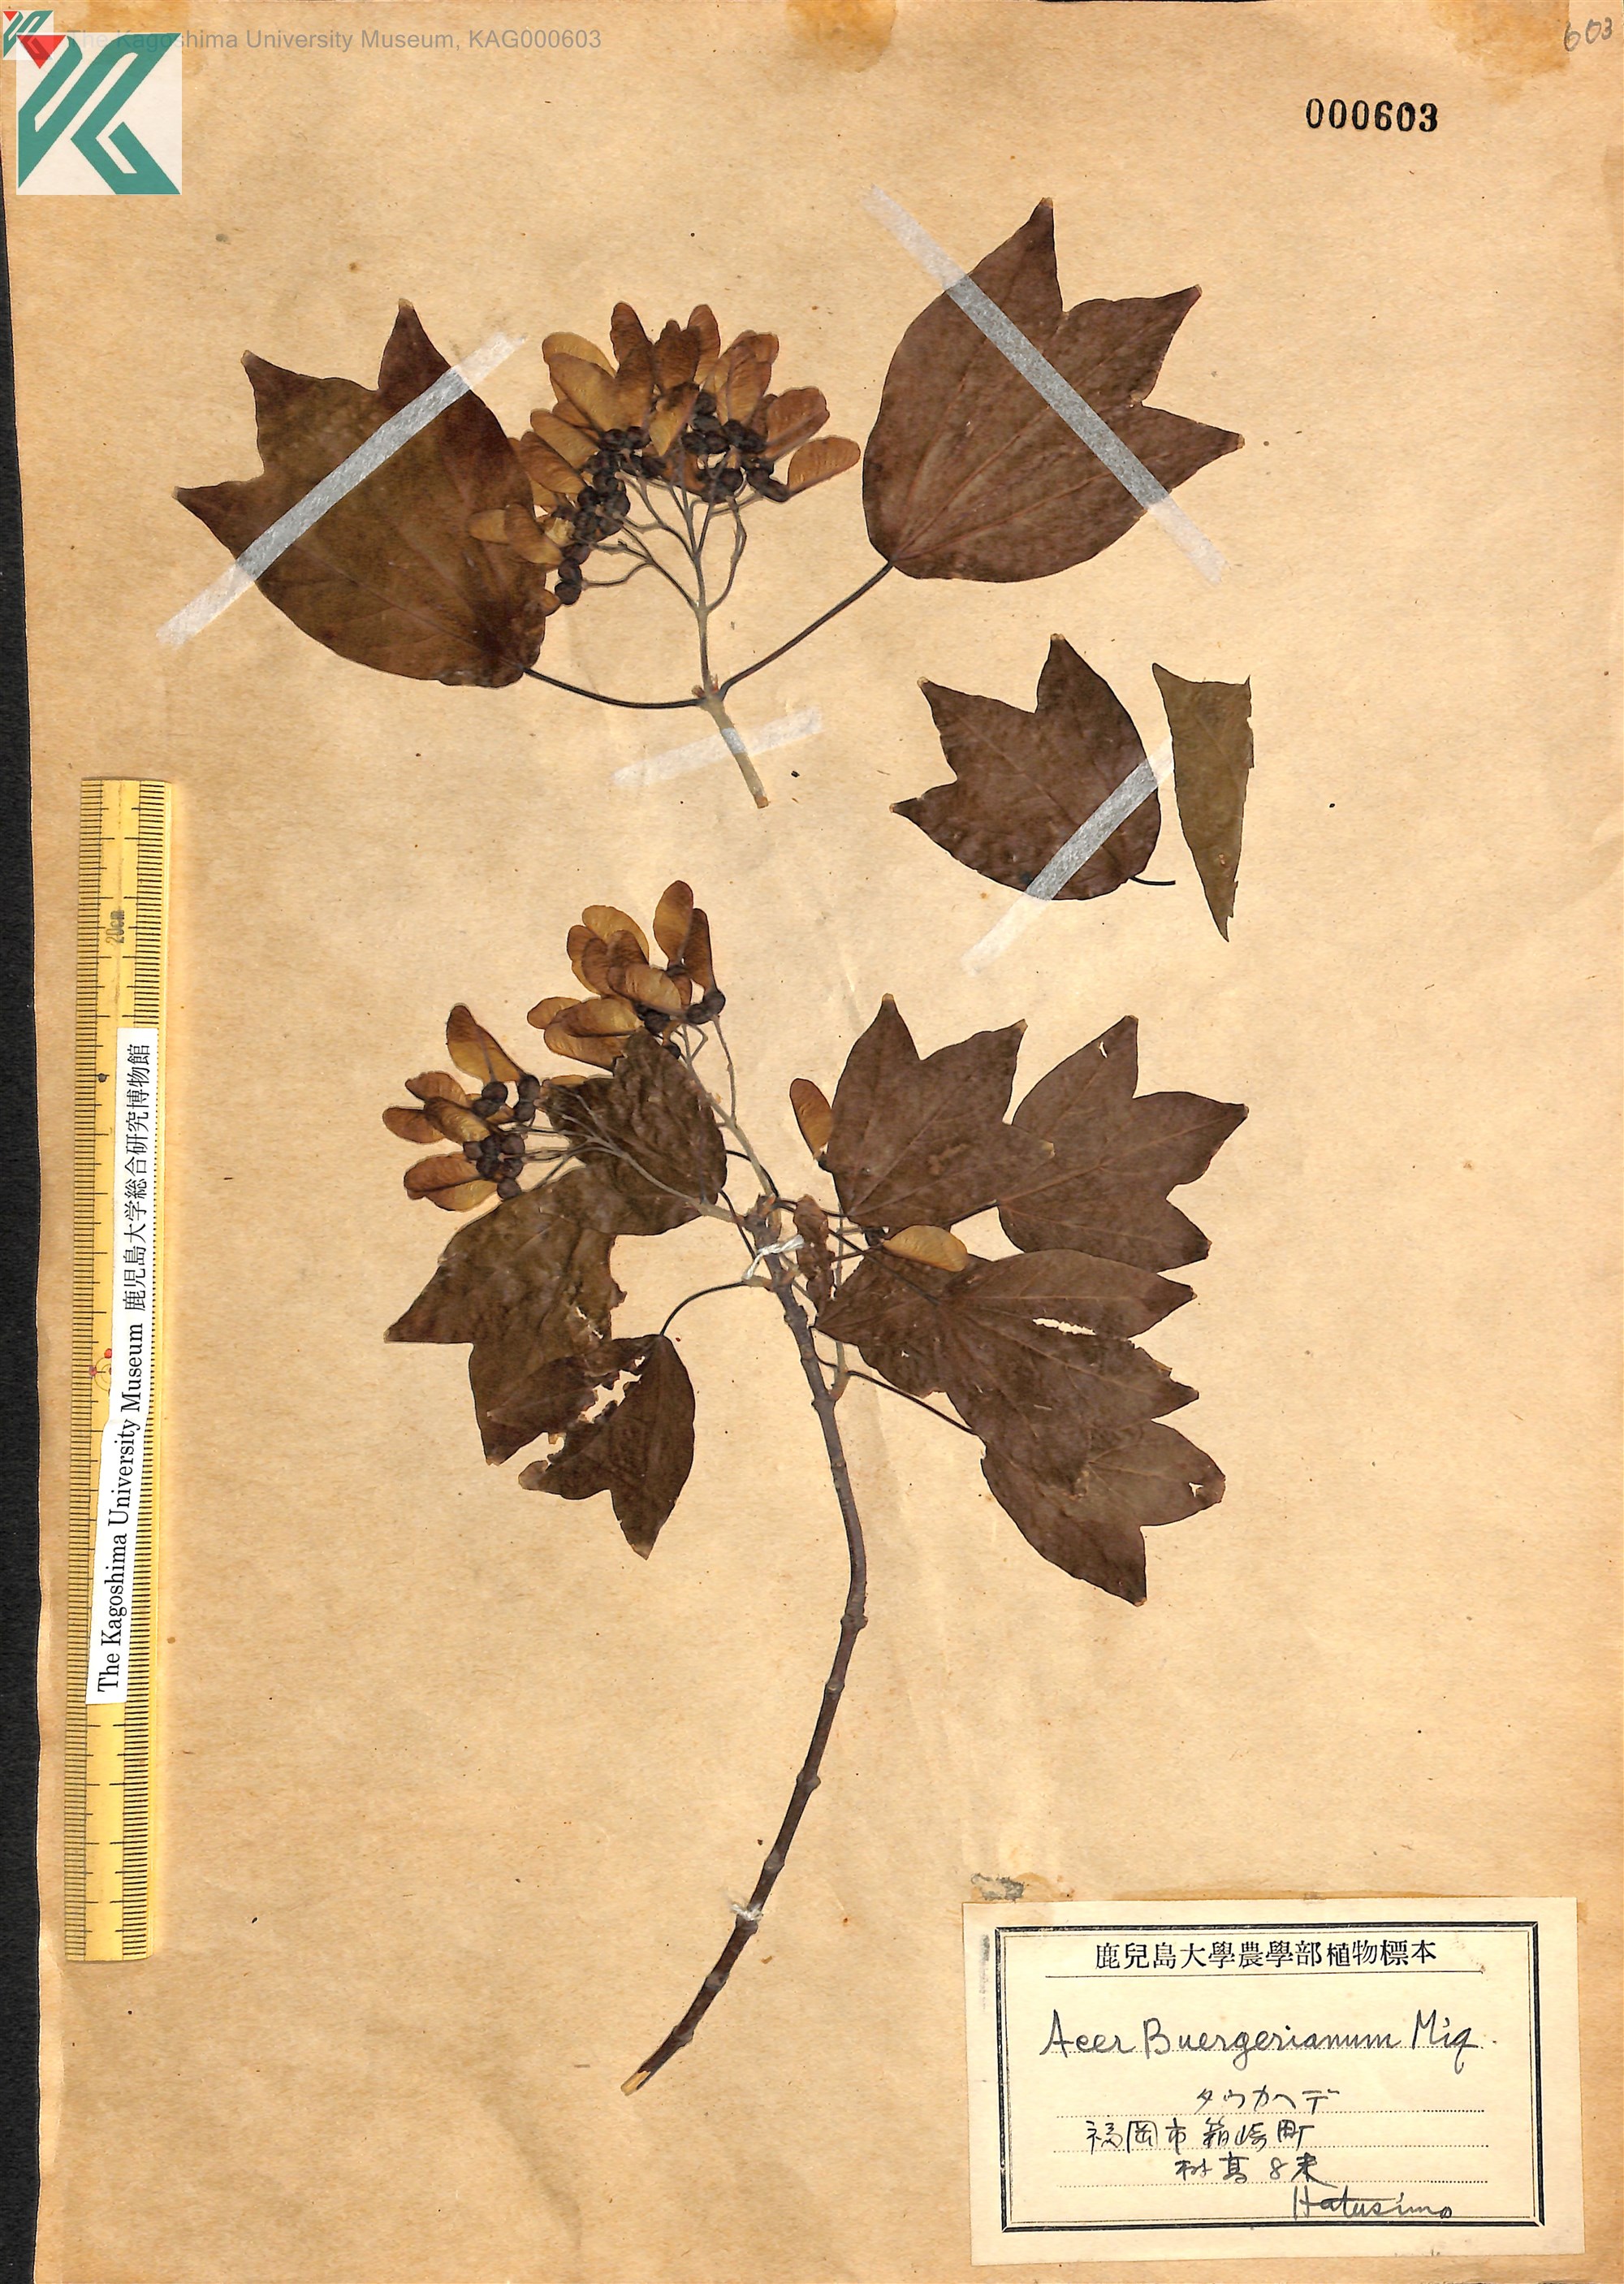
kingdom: Plantae
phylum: Tracheophyta
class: Magnoliopsida
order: Sapindales
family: Sapindaceae
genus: Acer
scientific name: Acer buergerianum
